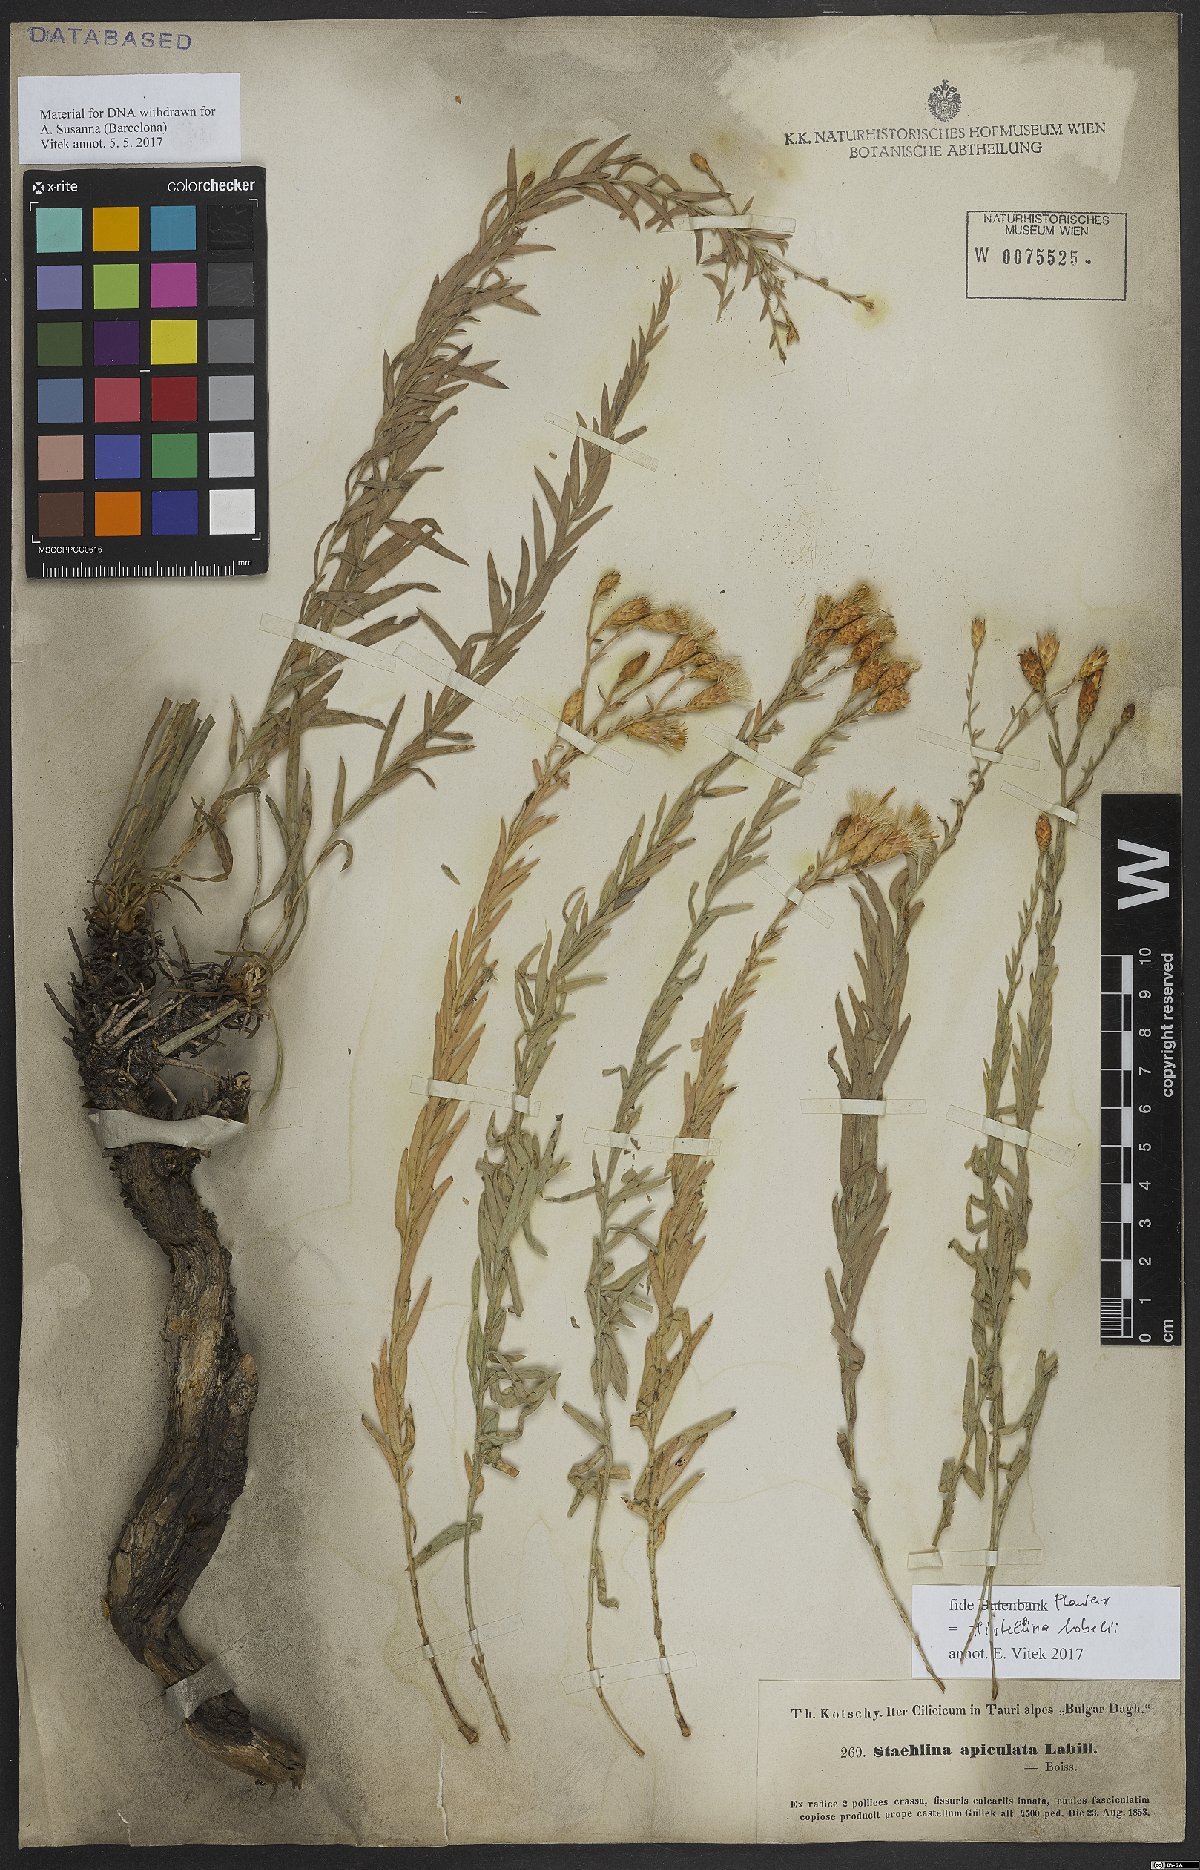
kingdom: Plantae
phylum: Tracheophyta
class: Magnoliopsida
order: Asterales
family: Asteraceae
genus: Hirtellina
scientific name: Hirtellina lobelii
